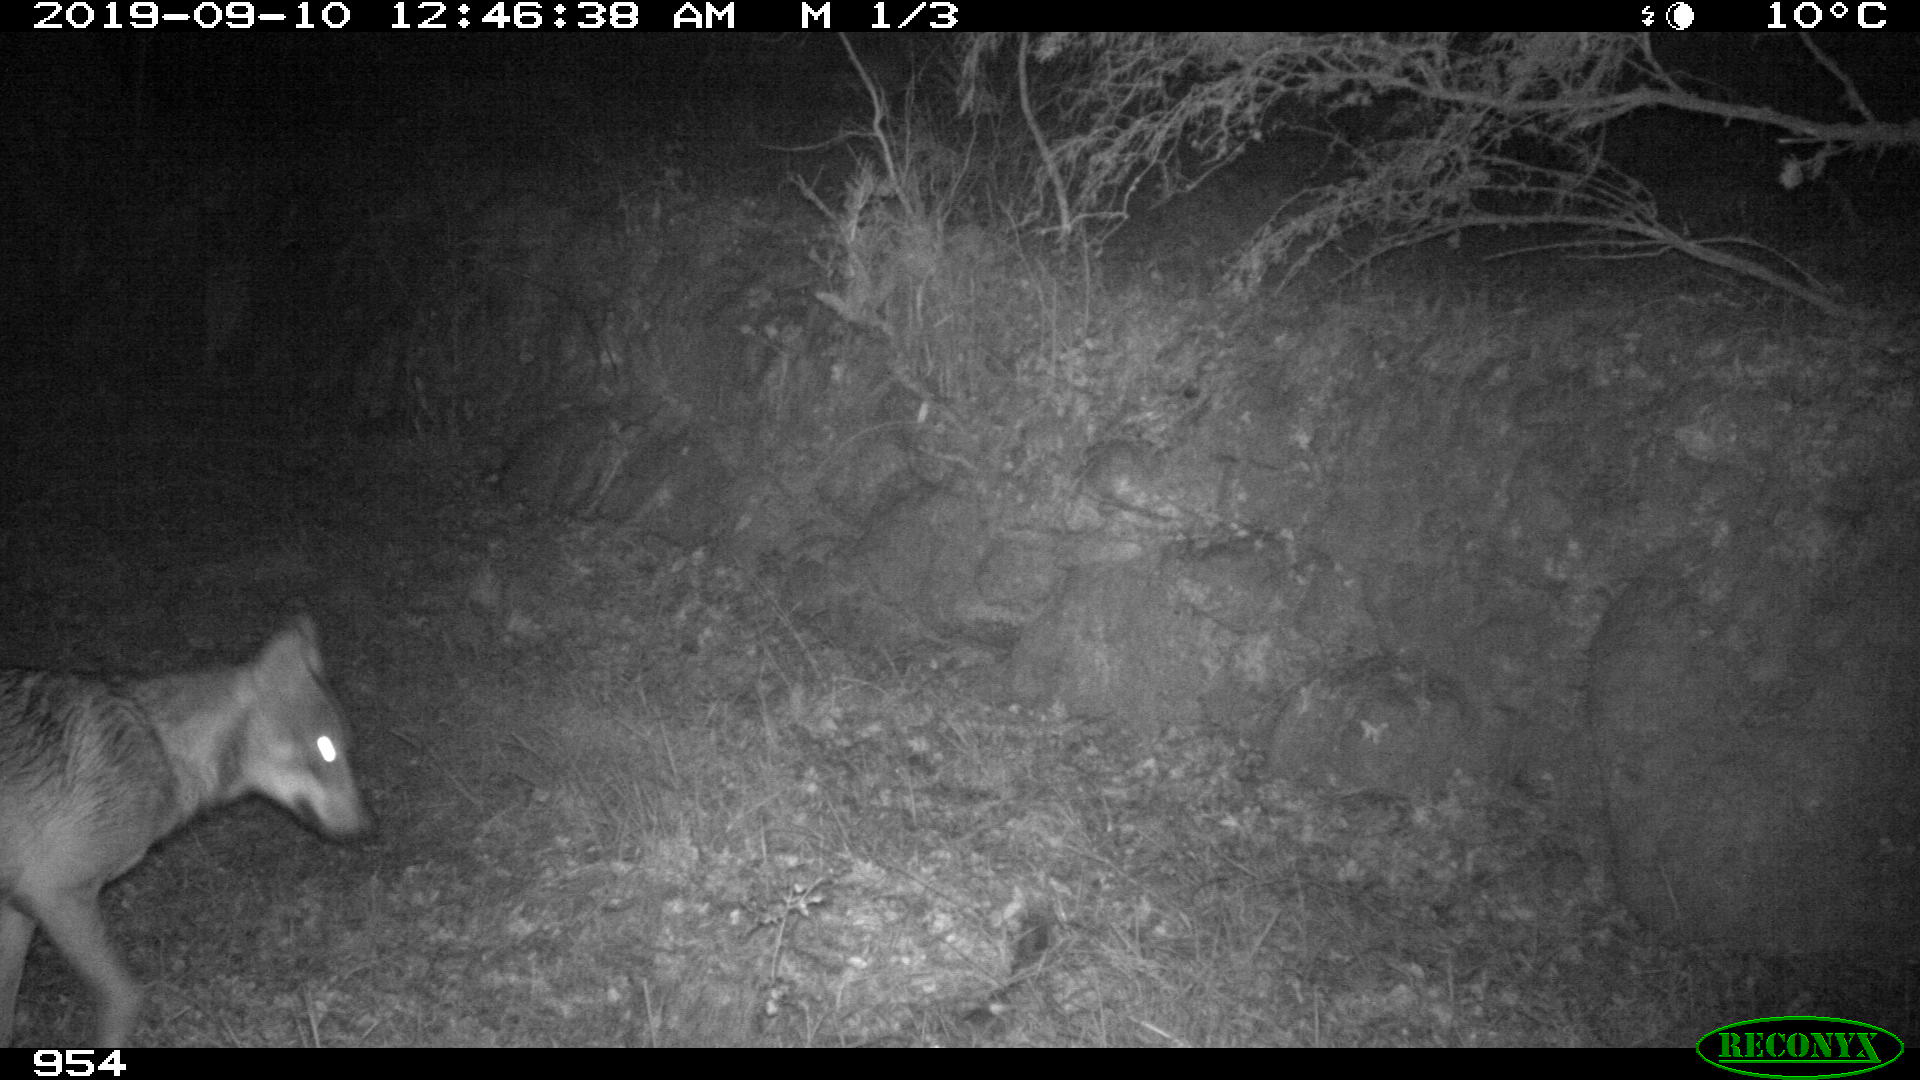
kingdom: Animalia
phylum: Chordata
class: Mammalia
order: Carnivora
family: Canidae
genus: Canis
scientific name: Canis lupus
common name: Gray wolf
